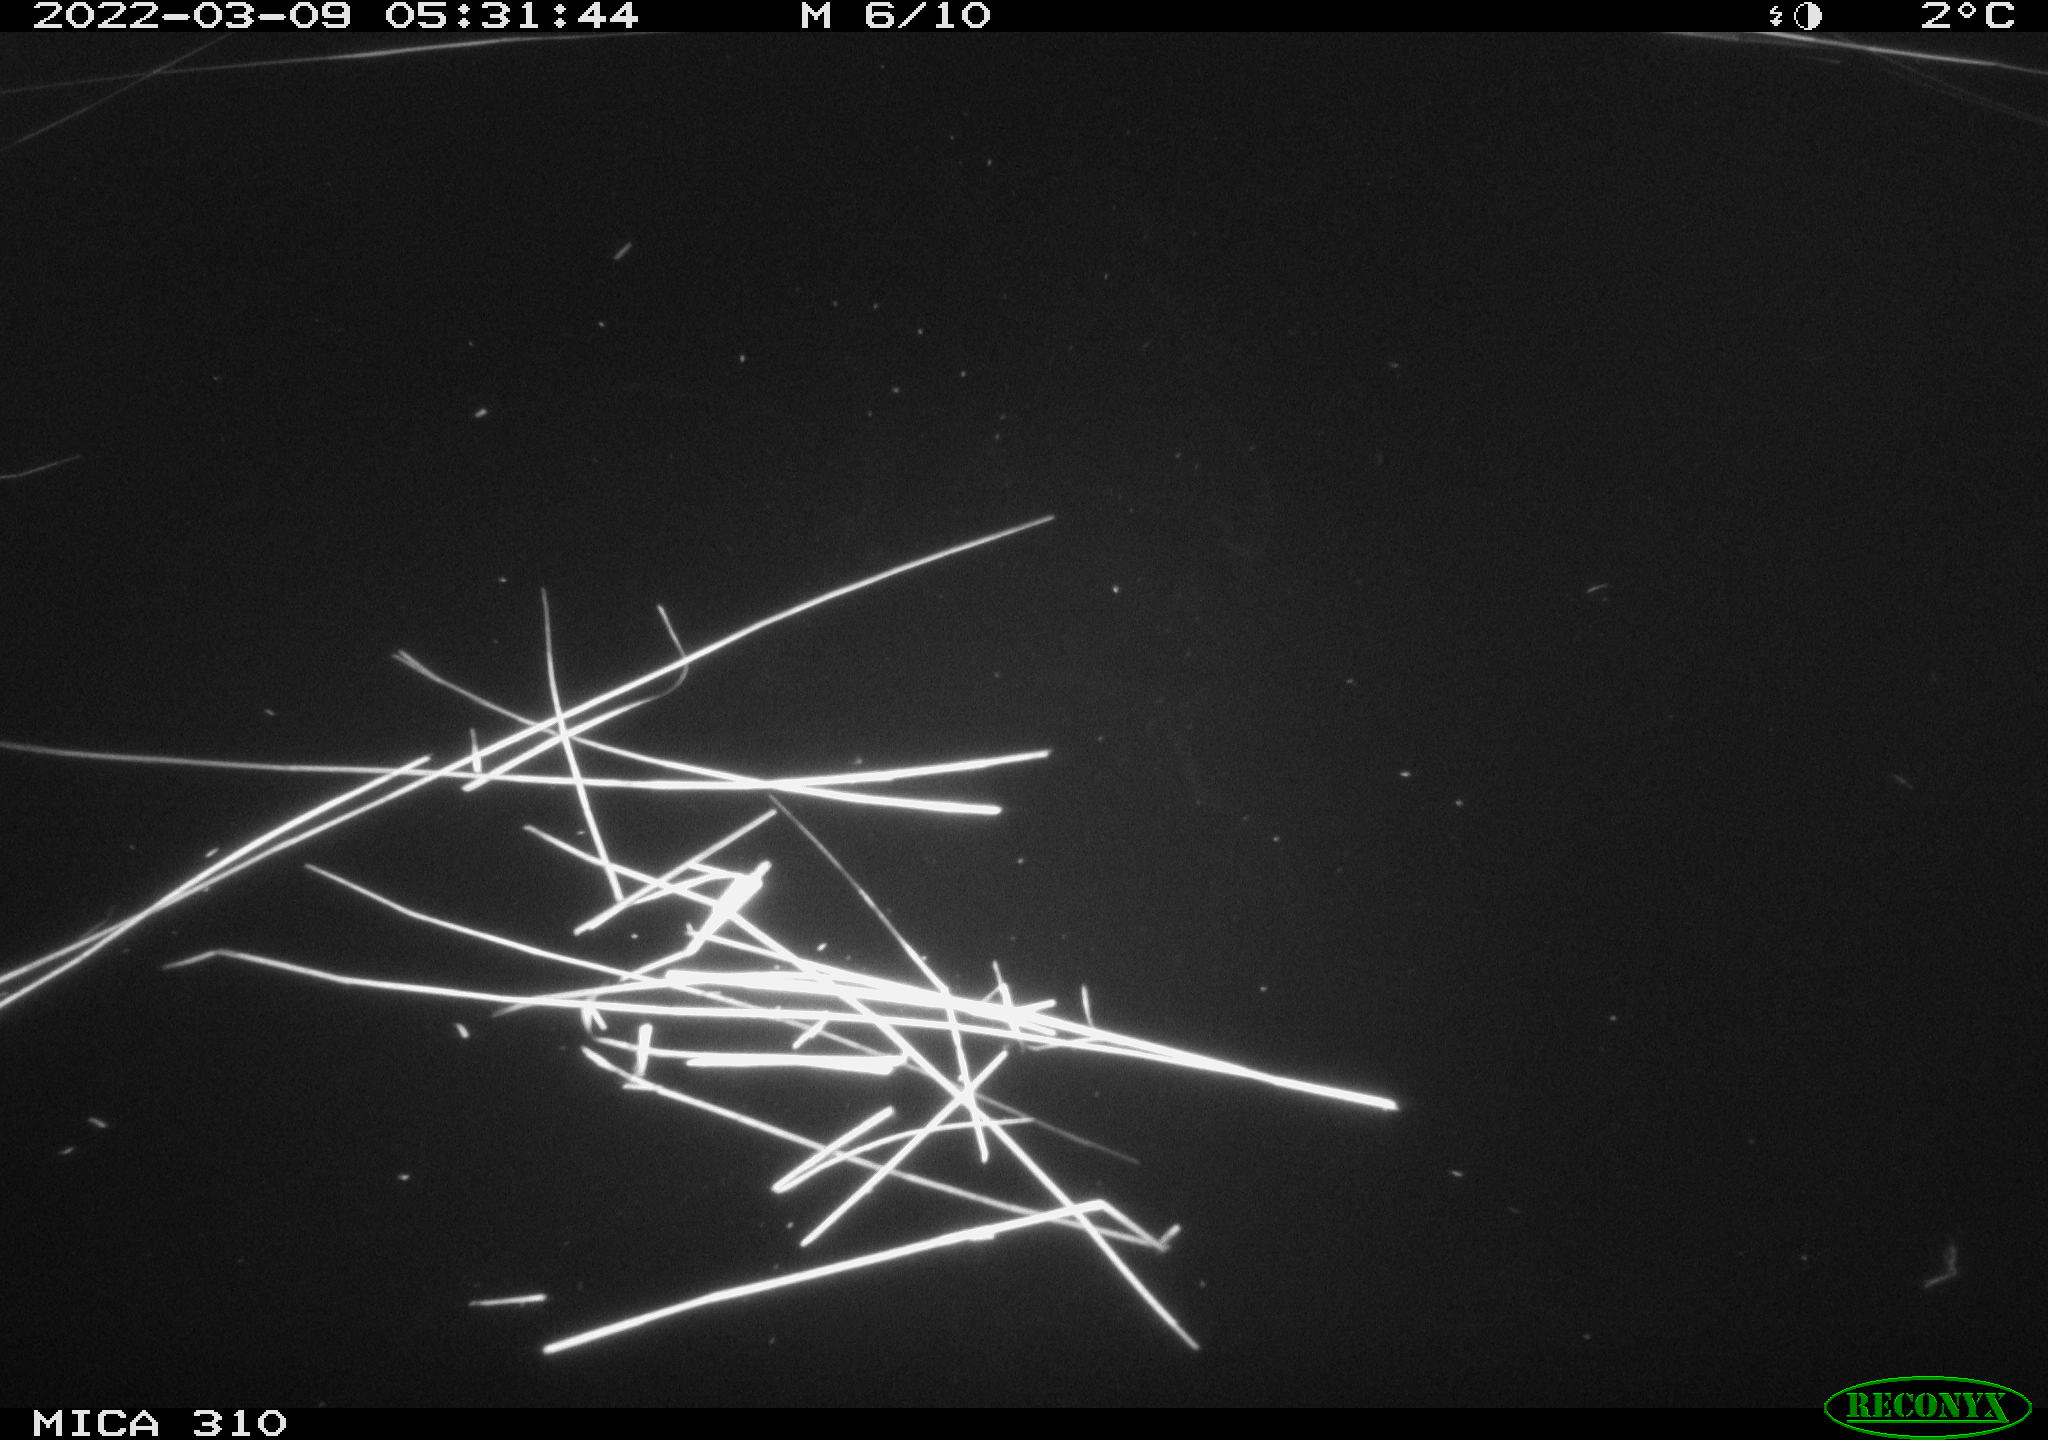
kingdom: Animalia
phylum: Chordata
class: Aves
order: Anseriformes
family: Anatidae
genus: Anas
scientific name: Anas platyrhynchos
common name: Mallard
